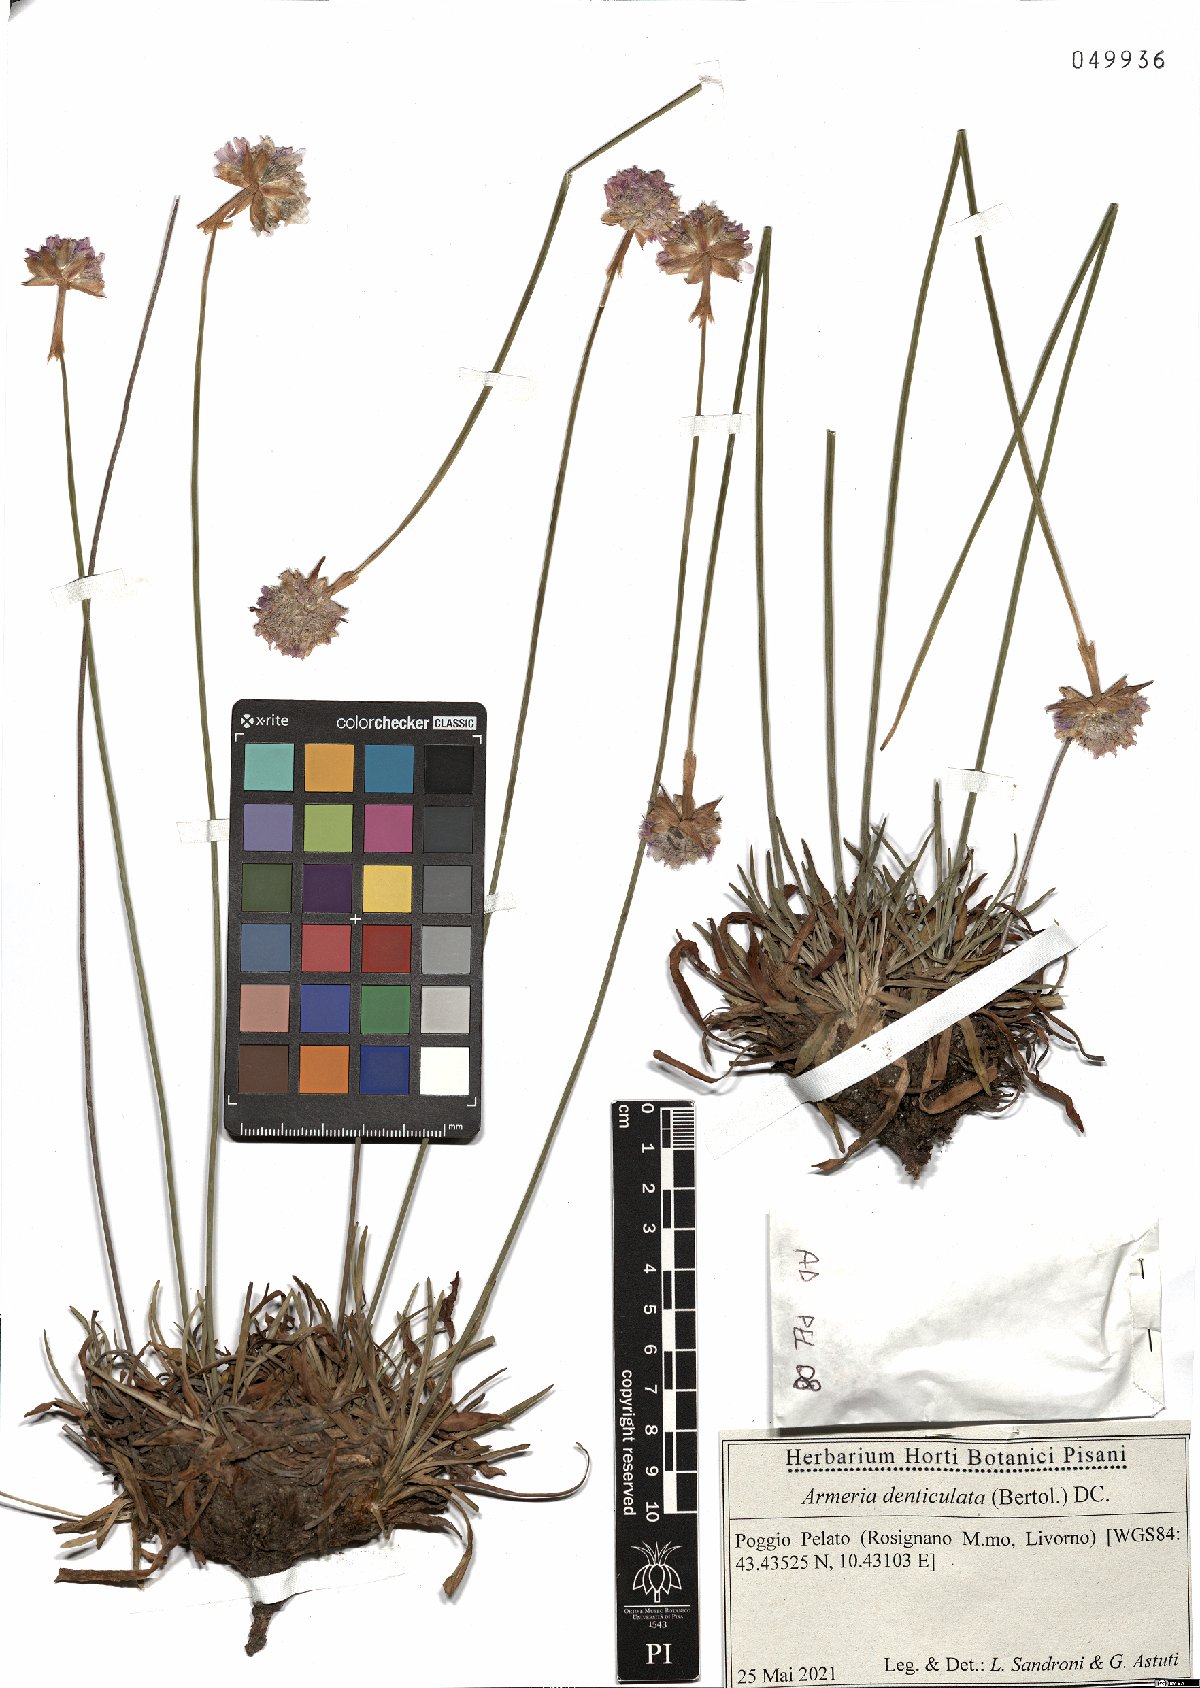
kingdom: Plantae
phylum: Tracheophyta
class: Magnoliopsida
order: Caryophyllales
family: Plumbaginaceae
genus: Armeria
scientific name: Armeria denticulata
